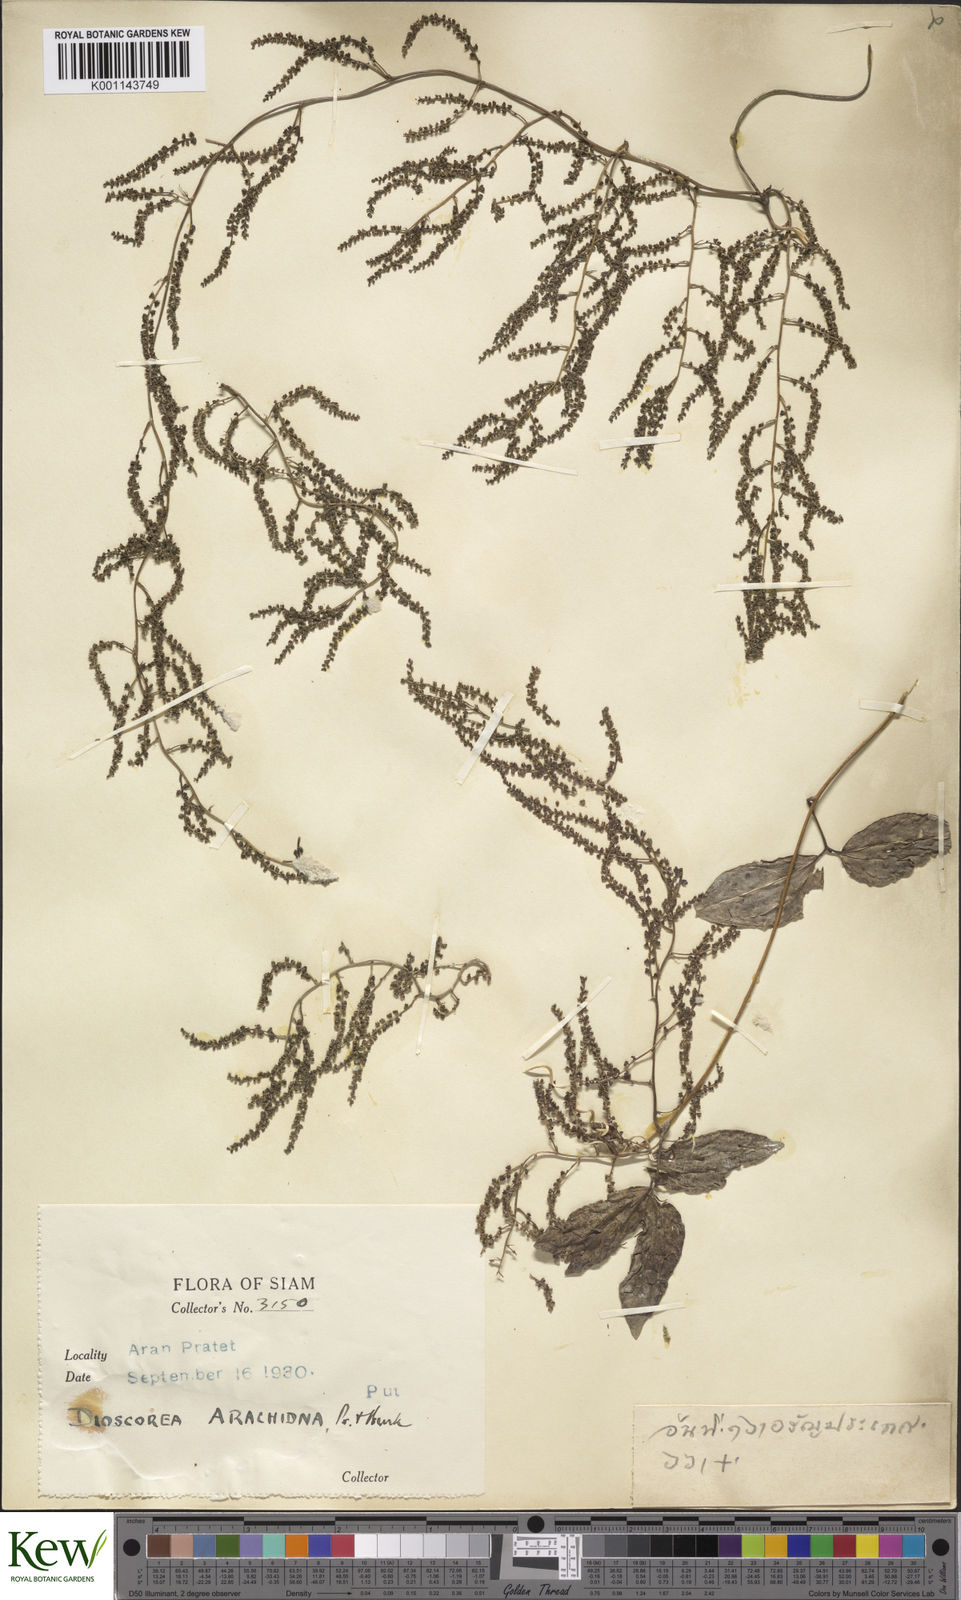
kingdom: Plantae
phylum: Tracheophyta
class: Liliopsida
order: Dioscoreales
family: Dioscoreaceae
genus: Dioscorea
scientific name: Dioscorea arachidna
